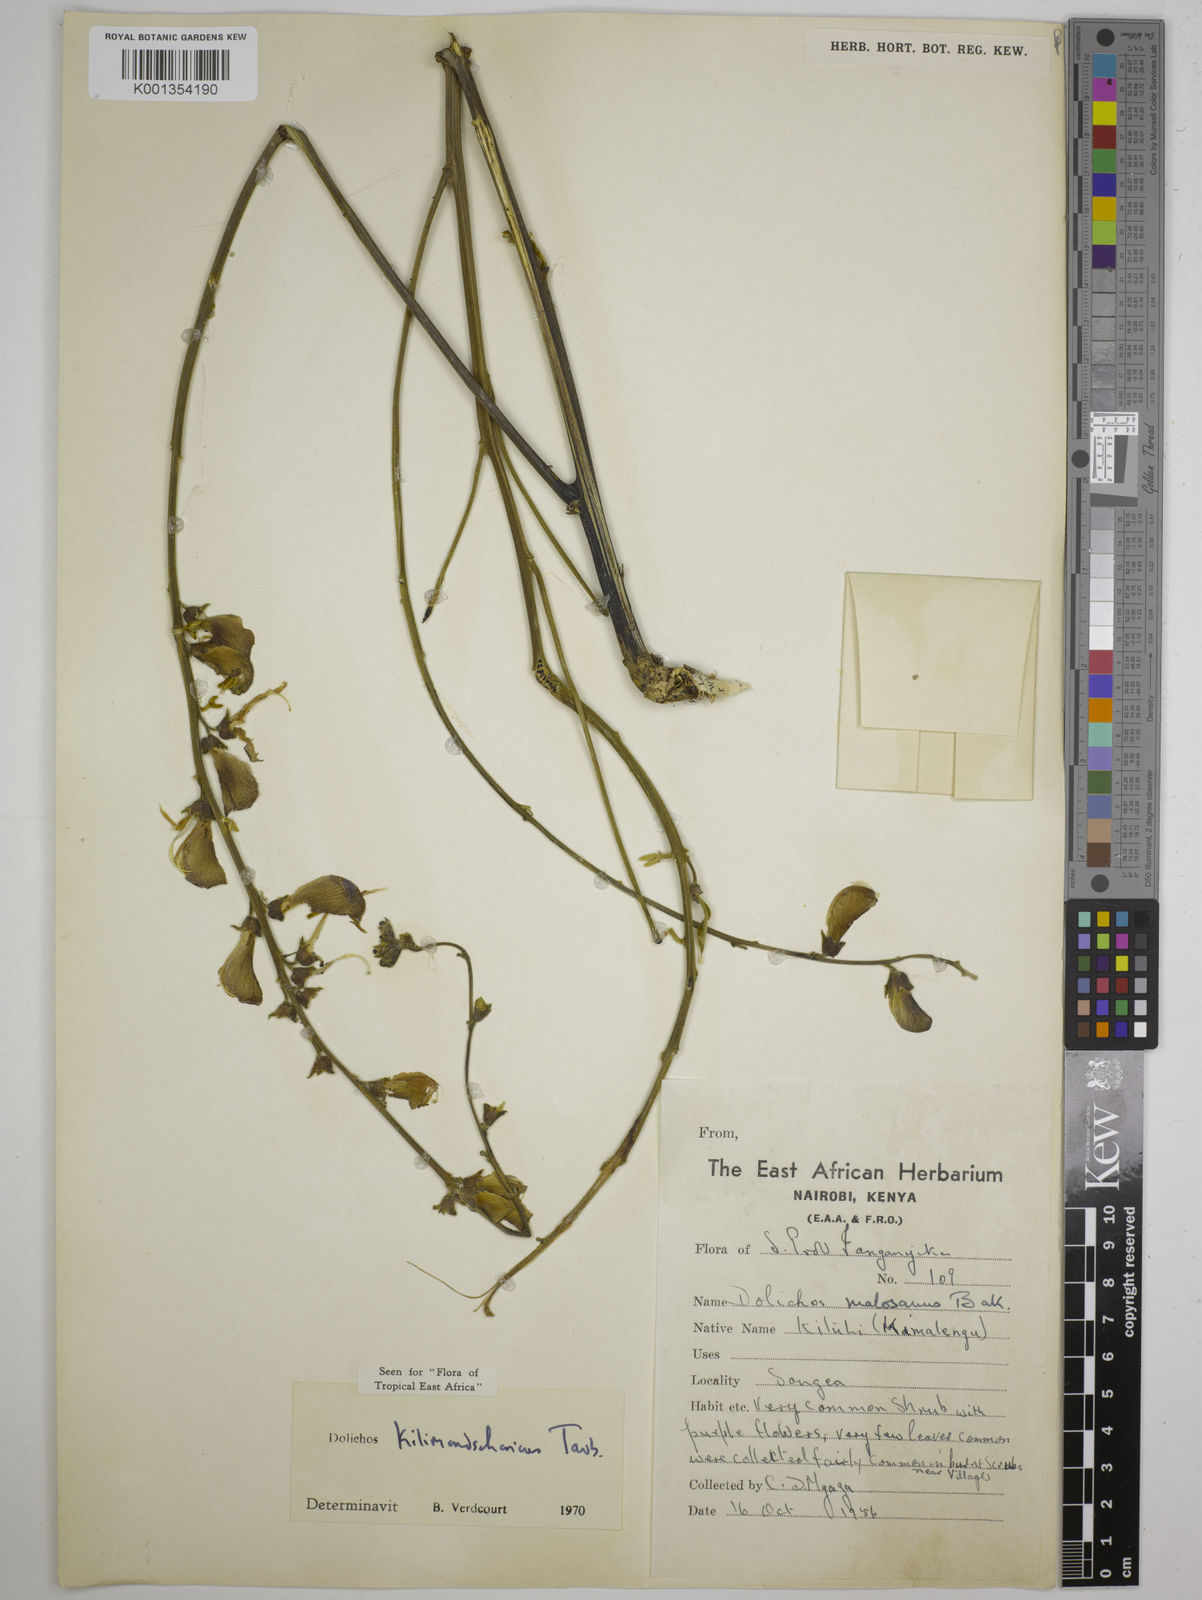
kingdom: Plantae
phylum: Tracheophyta
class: Magnoliopsida
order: Fabales
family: Fabaceae
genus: Dolichos
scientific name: Dolichos kilimandscharicus
